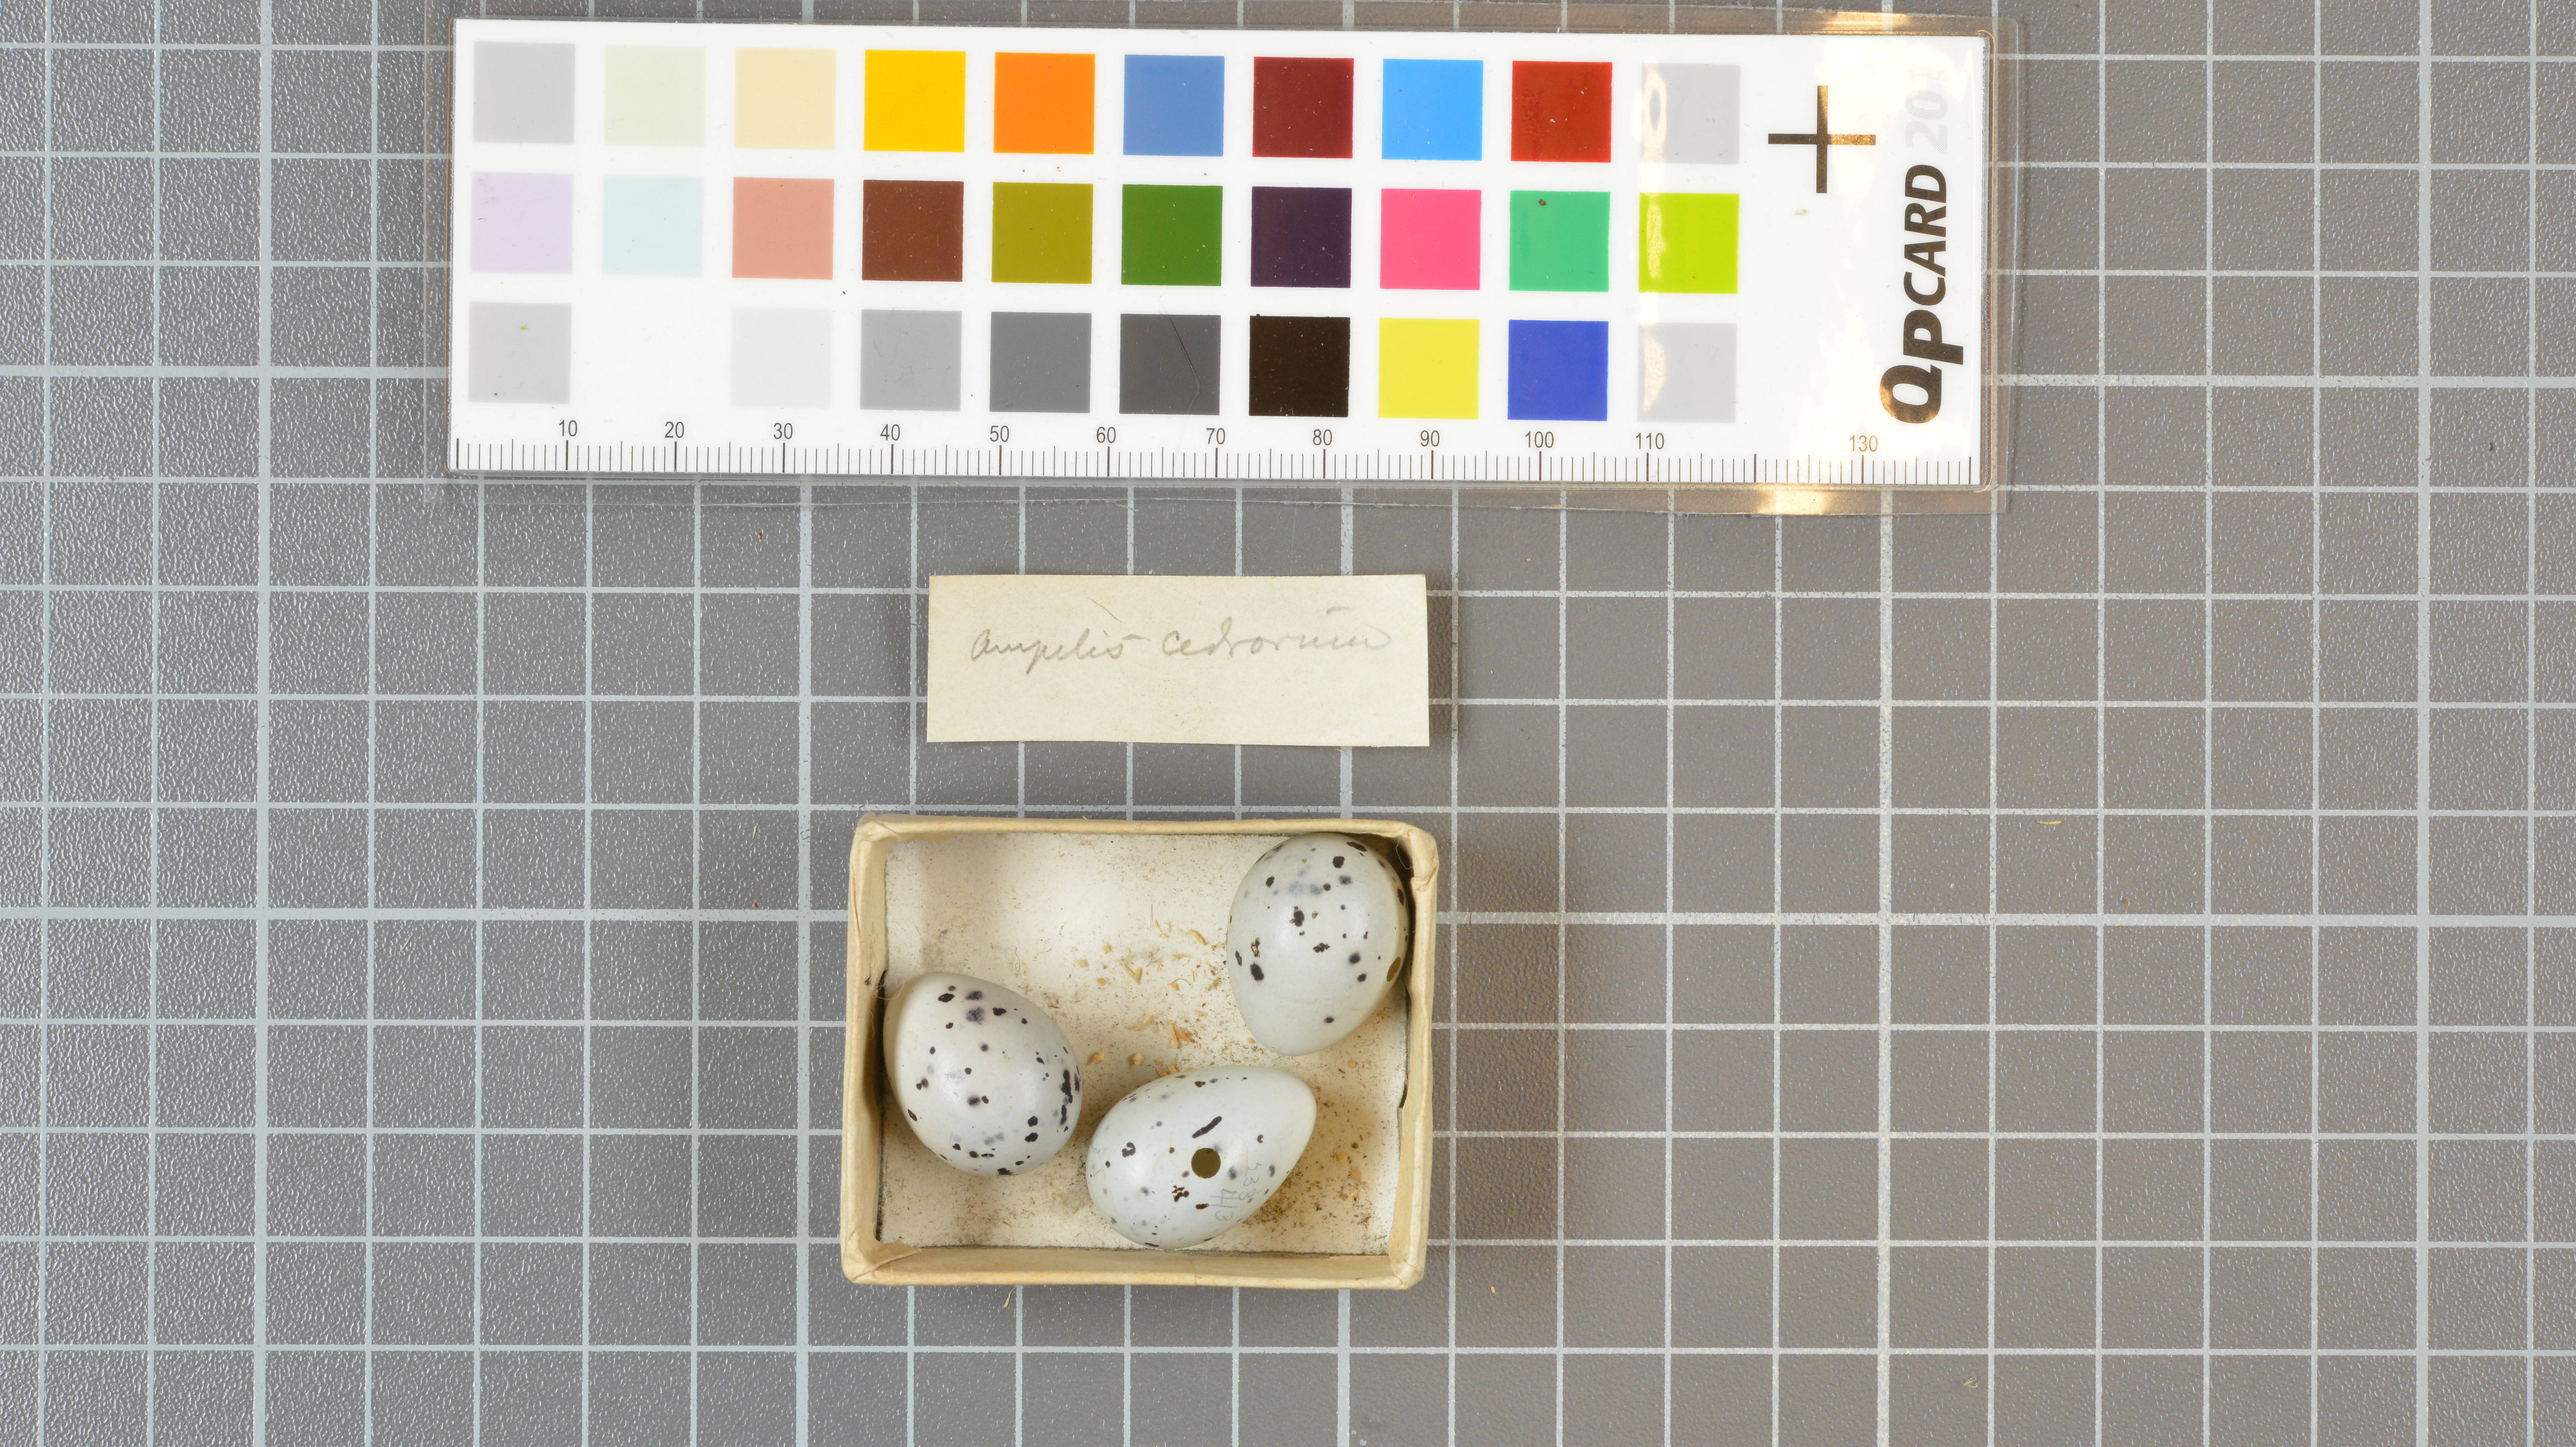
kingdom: Animalia
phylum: Chordata
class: Aves
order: Passeriformes
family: Bombycillidae
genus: Bombycilla
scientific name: Bombycilla cedrorum
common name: Cedar waxwing
